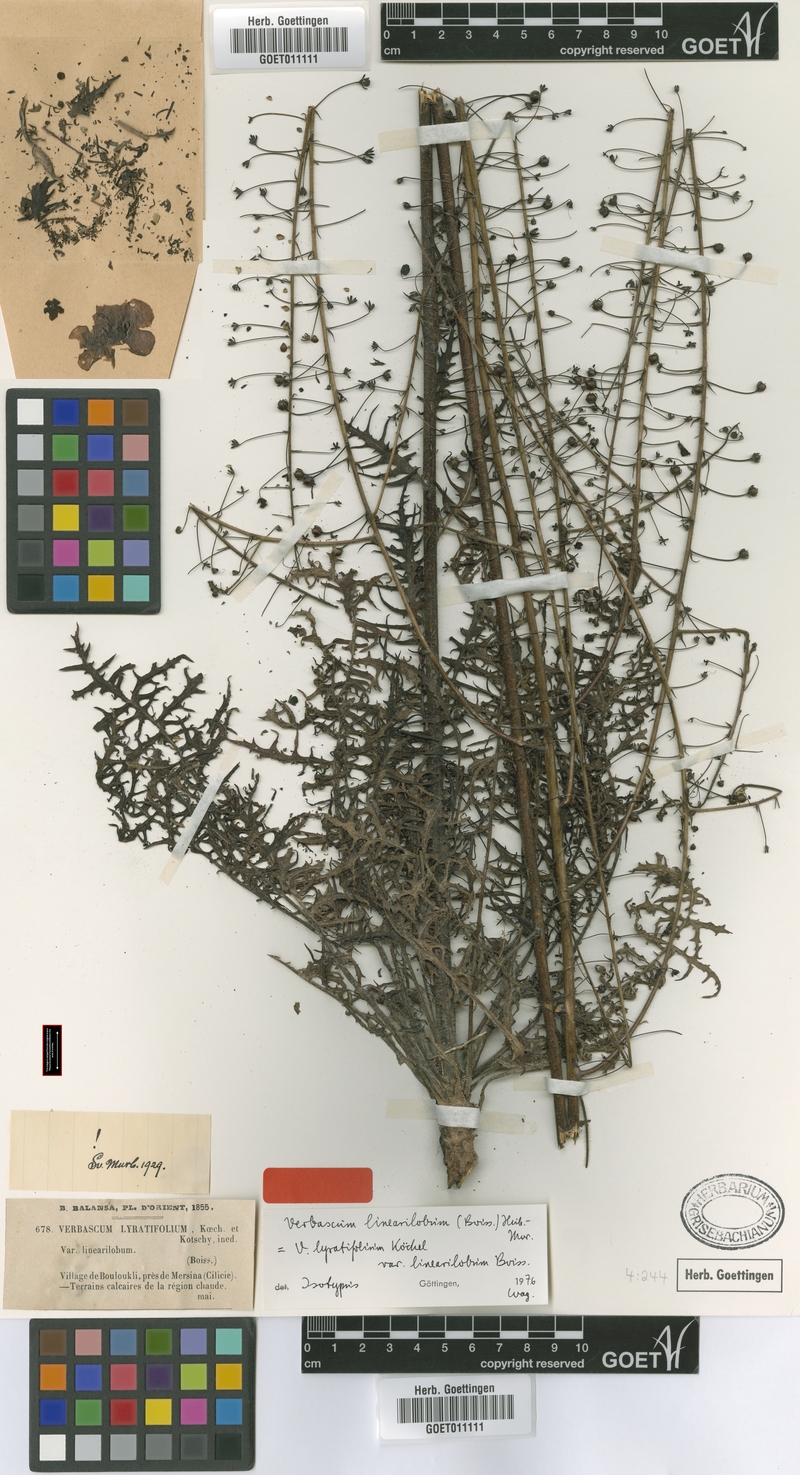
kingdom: Plantae
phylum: Tracheophyta
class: Magnoliopsida
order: Lamiales
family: Scrophulariaceae
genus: Verbascum
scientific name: Verbascum linearilobum
